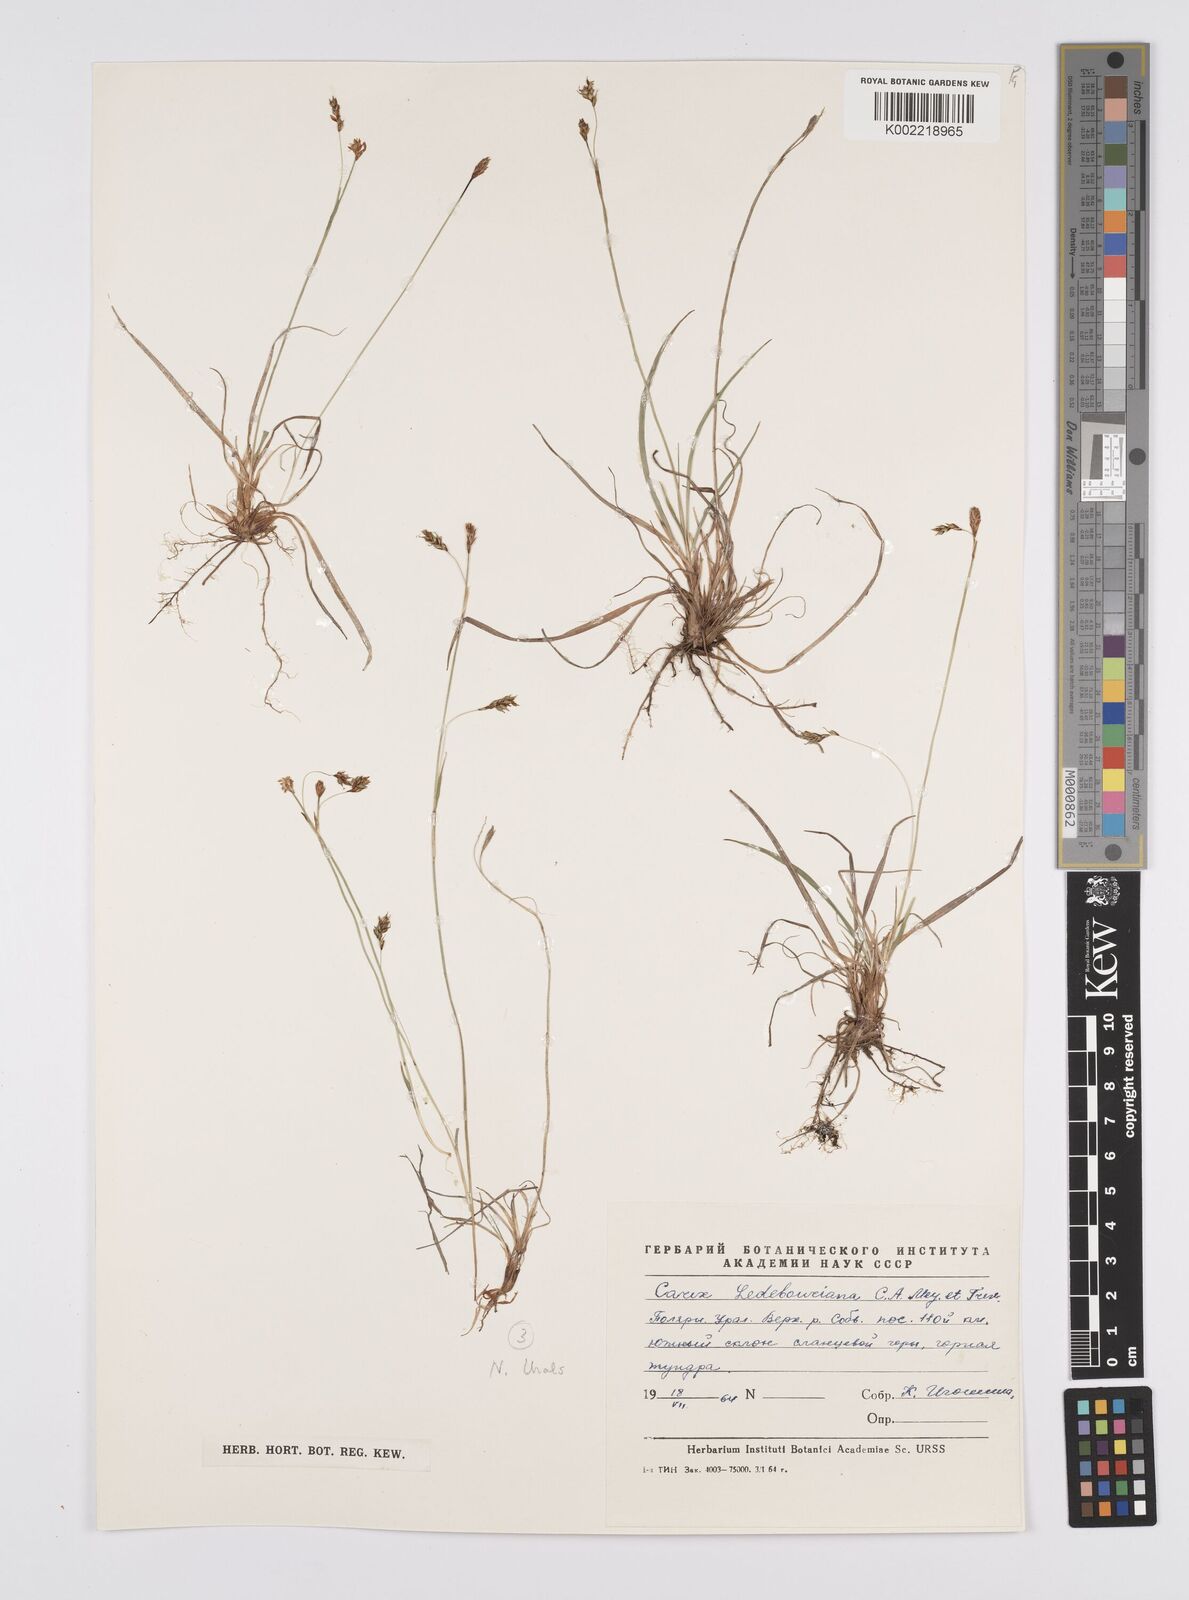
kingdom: Plantae
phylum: Tracheophyta
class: Liliopsida
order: Poales
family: Cyperaceae
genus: Carex
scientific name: Carex melanostachya
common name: Black-spiked sedge
